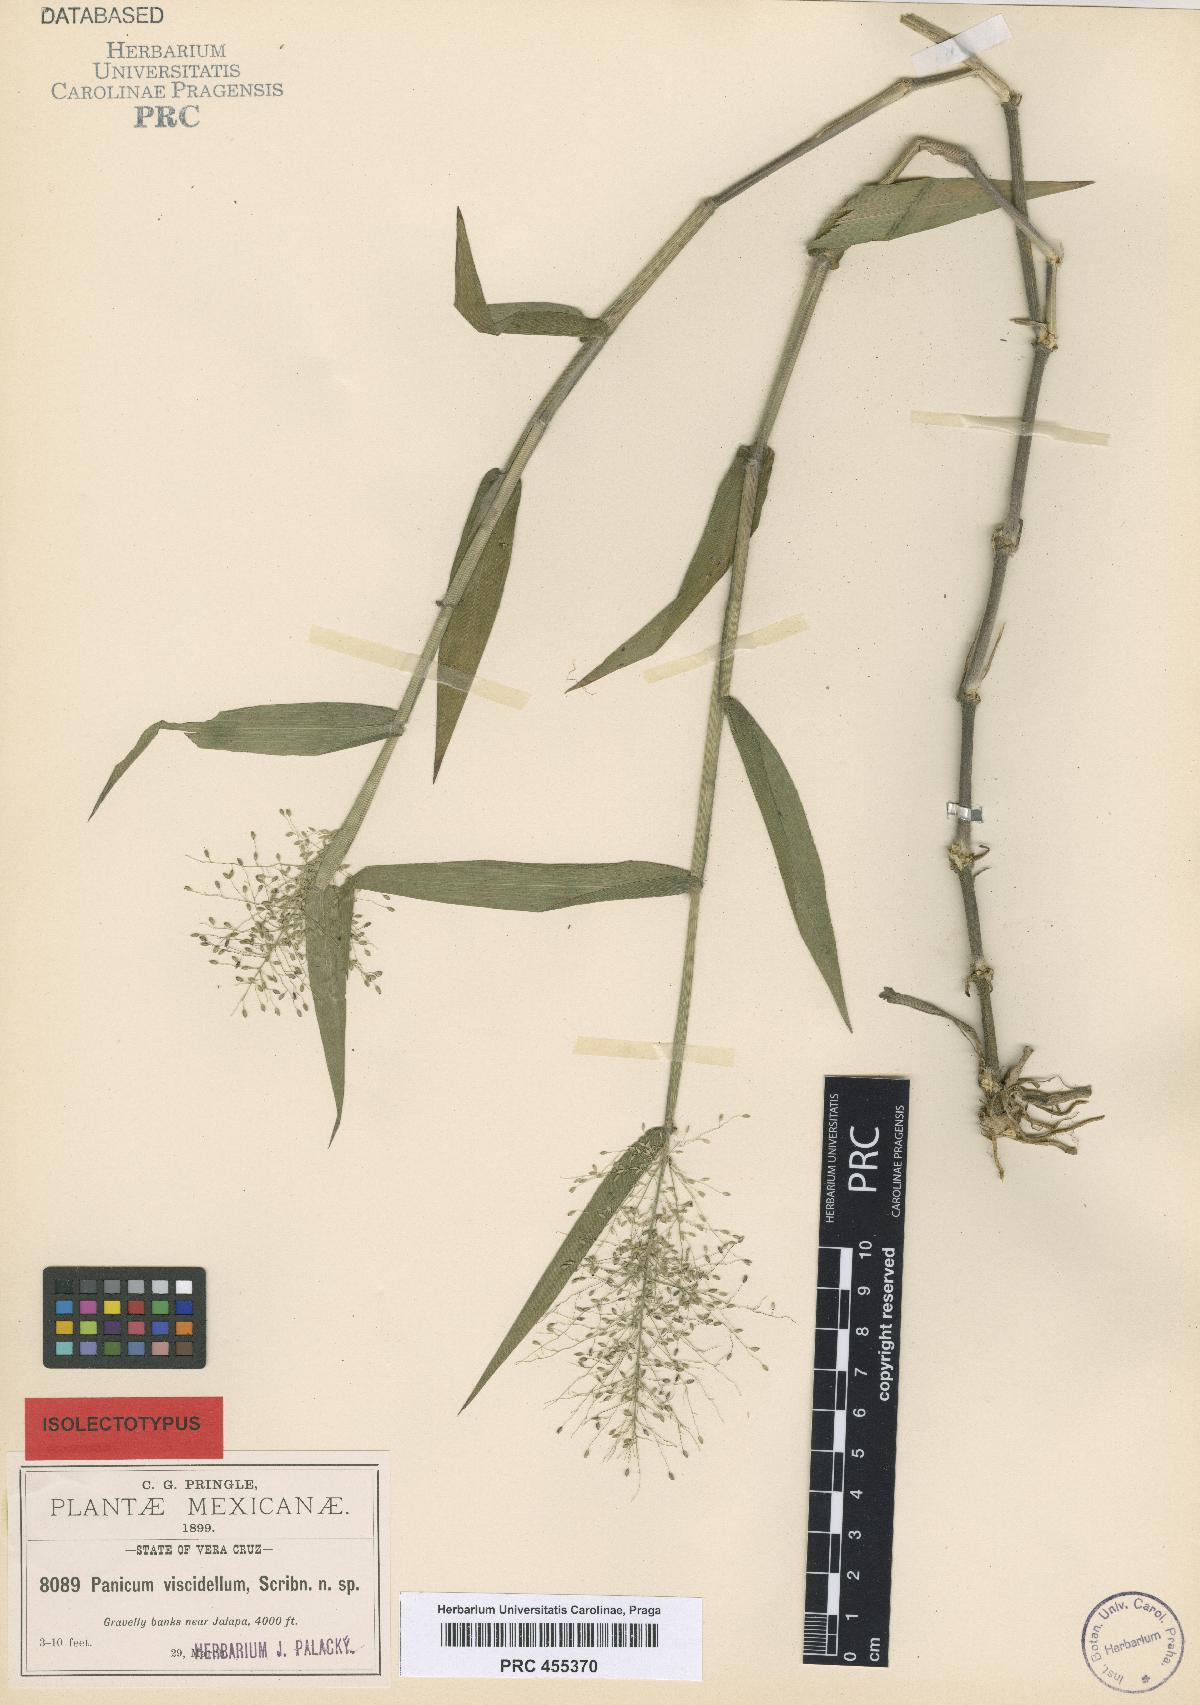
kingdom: Plantae
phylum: Tracheophyta
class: Liliopsida
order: Poales
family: Poaceae
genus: Dichanthelium
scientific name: Dichanthelium viscidellum
